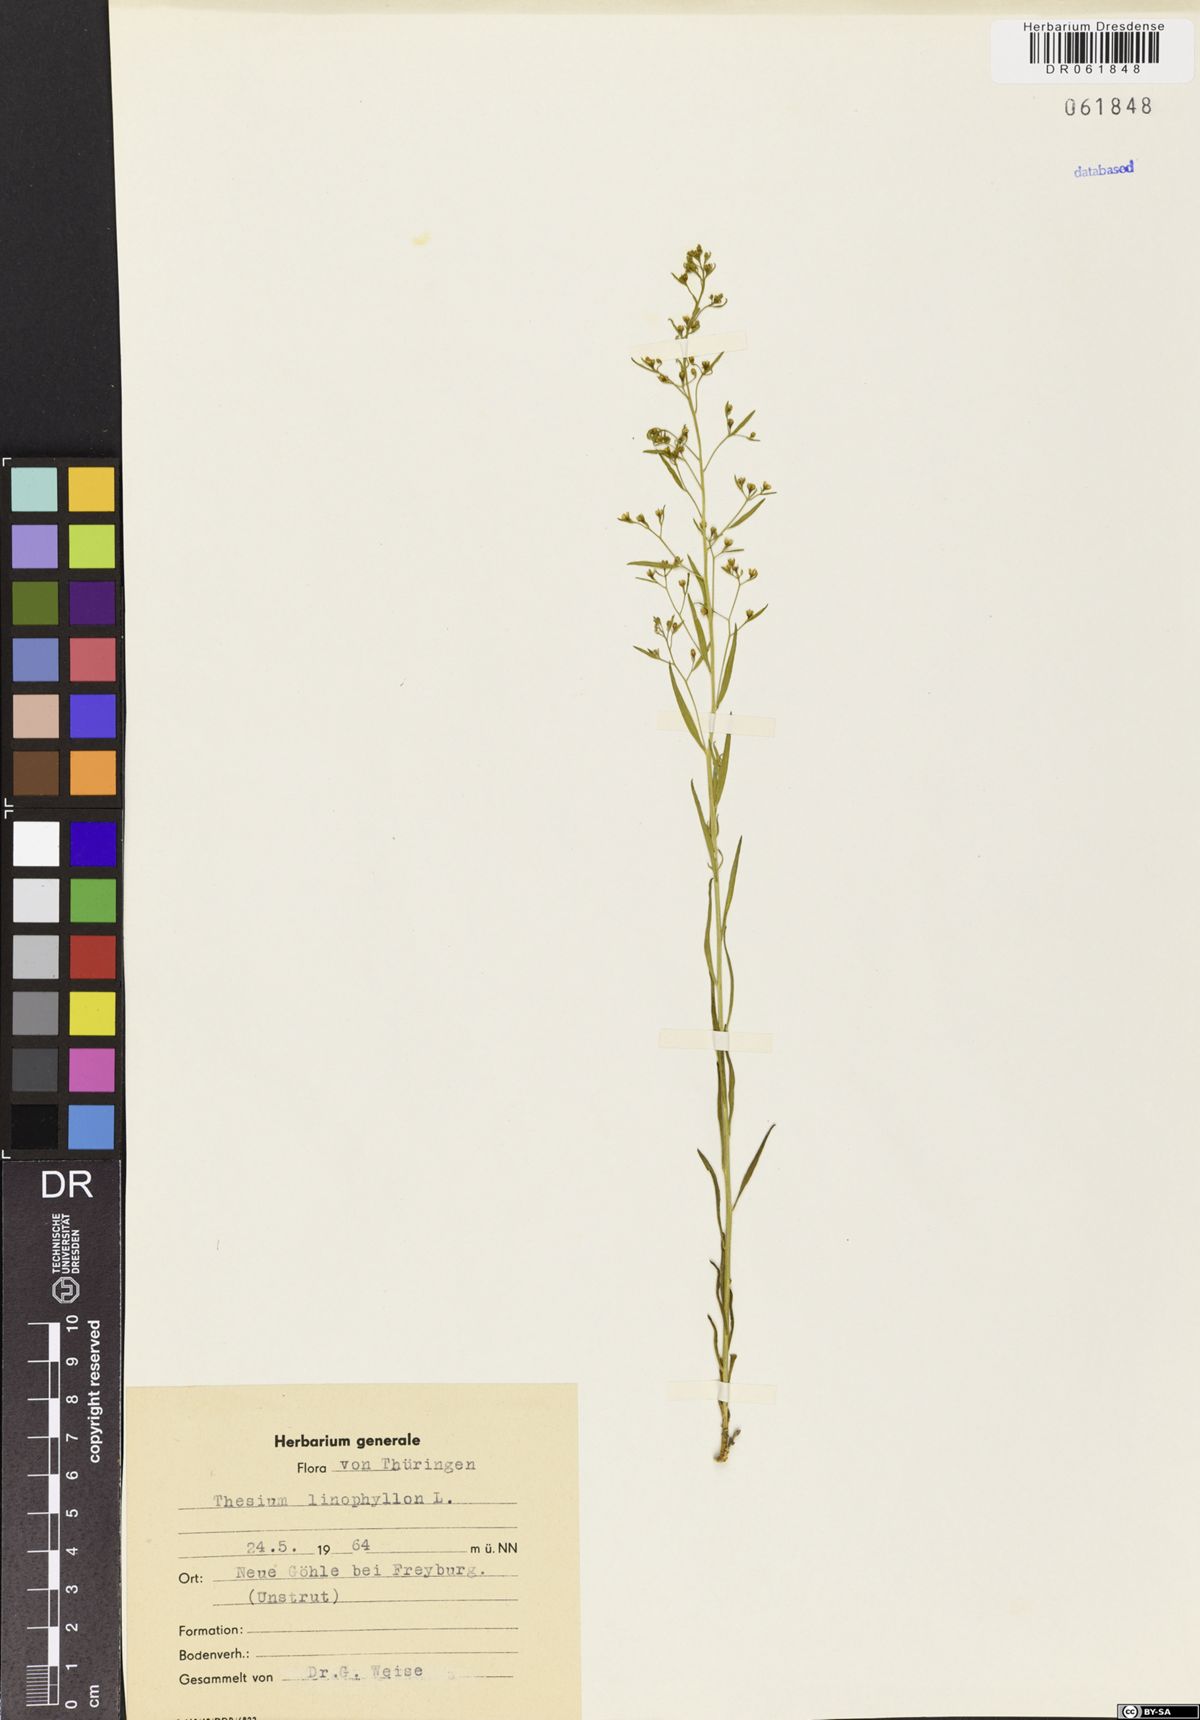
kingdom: Plantae
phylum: Tracheophyta
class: Magnoliopsida
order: Santalales
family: Thesiaceae
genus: Thesium
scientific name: Thesium linophyllon
